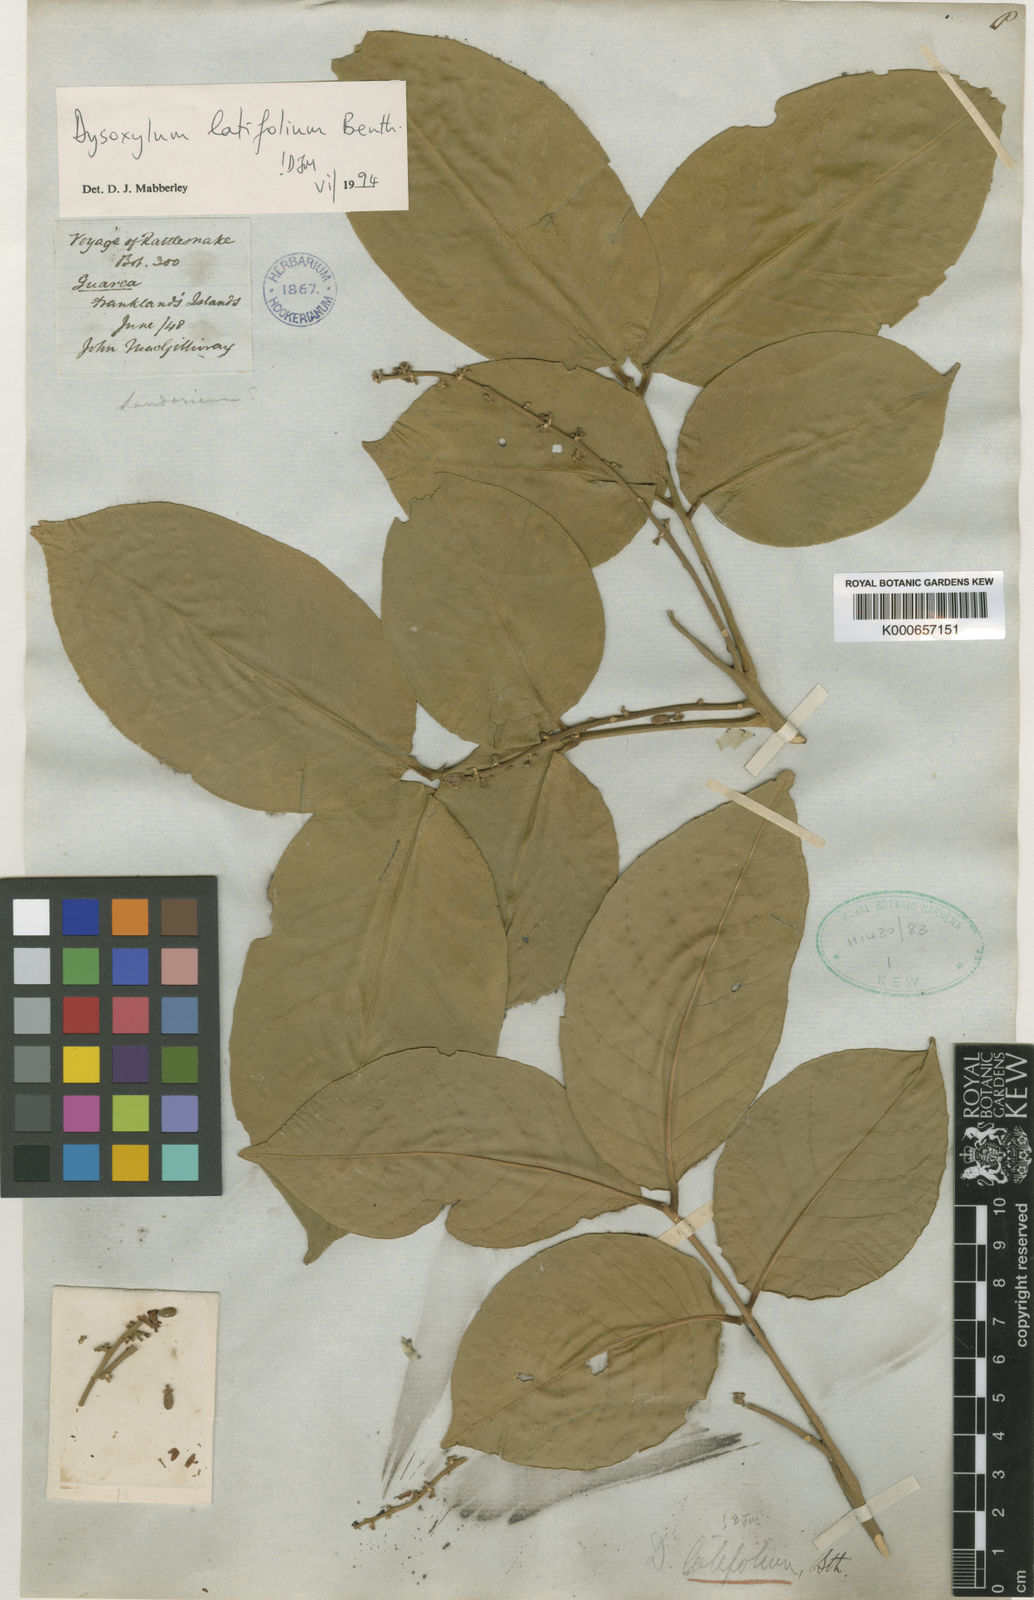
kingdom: Plantae
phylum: Tracheophyta
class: Magnoliopsida
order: Sapindales
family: Meliaceae
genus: Dysoxylum
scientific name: Dysoxylum latifolium
